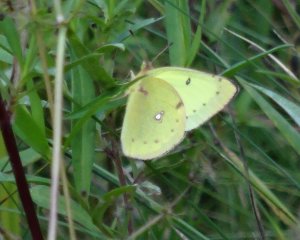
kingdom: Animalia
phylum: Arthropoda
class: Insecta
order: Lepidoptera
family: Pieridae
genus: Colias
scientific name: Colias philodice
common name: Clouded Sulphur
